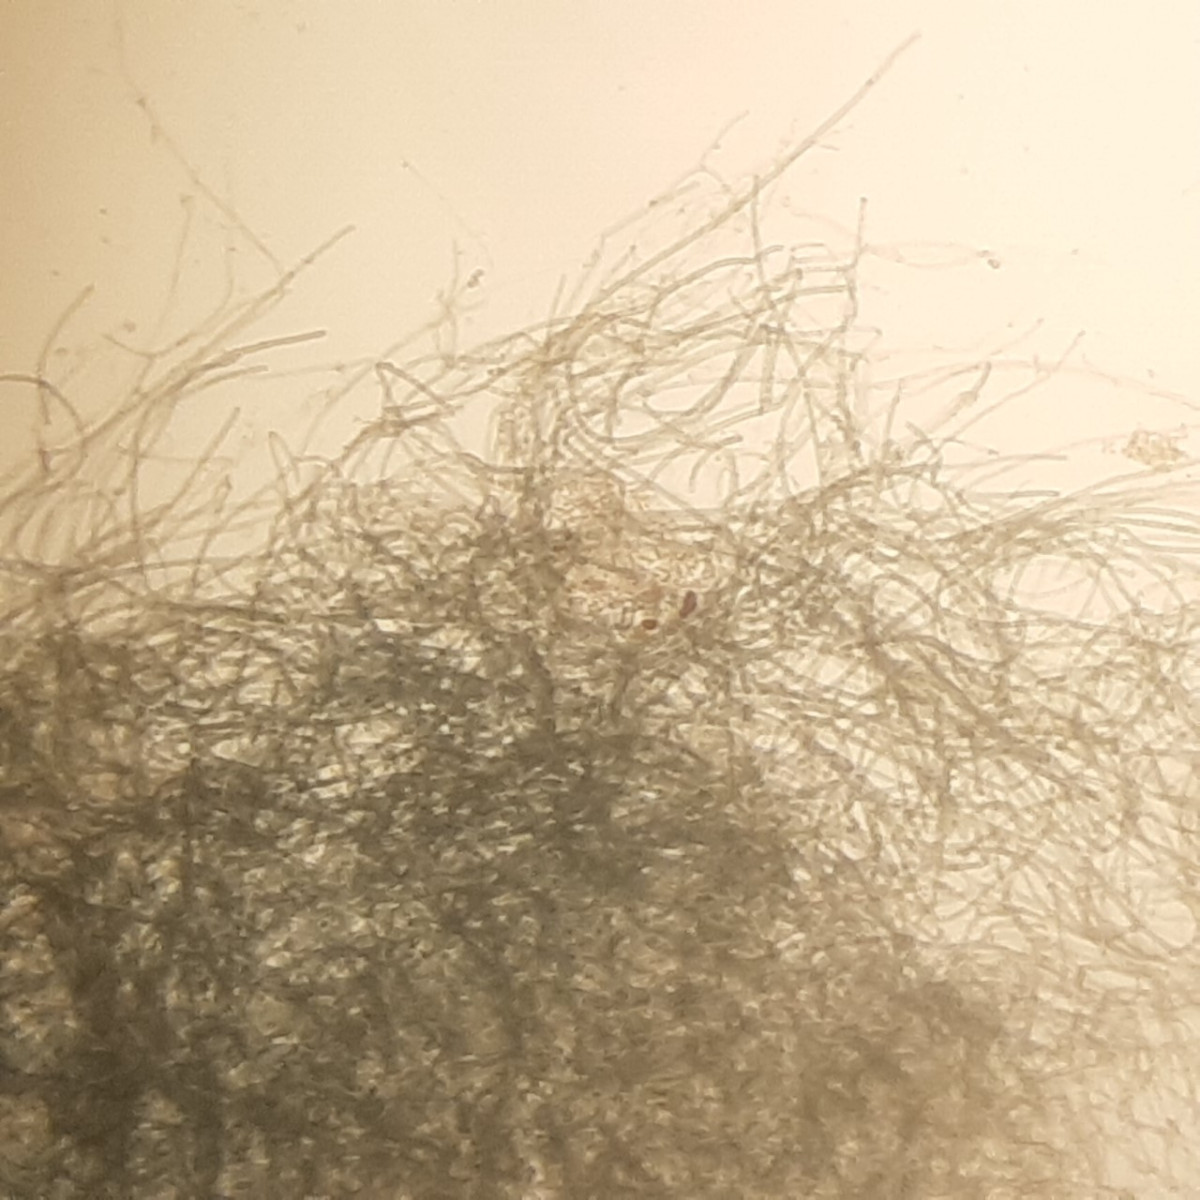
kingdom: Fungi
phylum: Basidiomycota
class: Agaricomycetes
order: Atheliales
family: Atheliaceae
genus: Byssocorticium
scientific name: Byssocorticium
